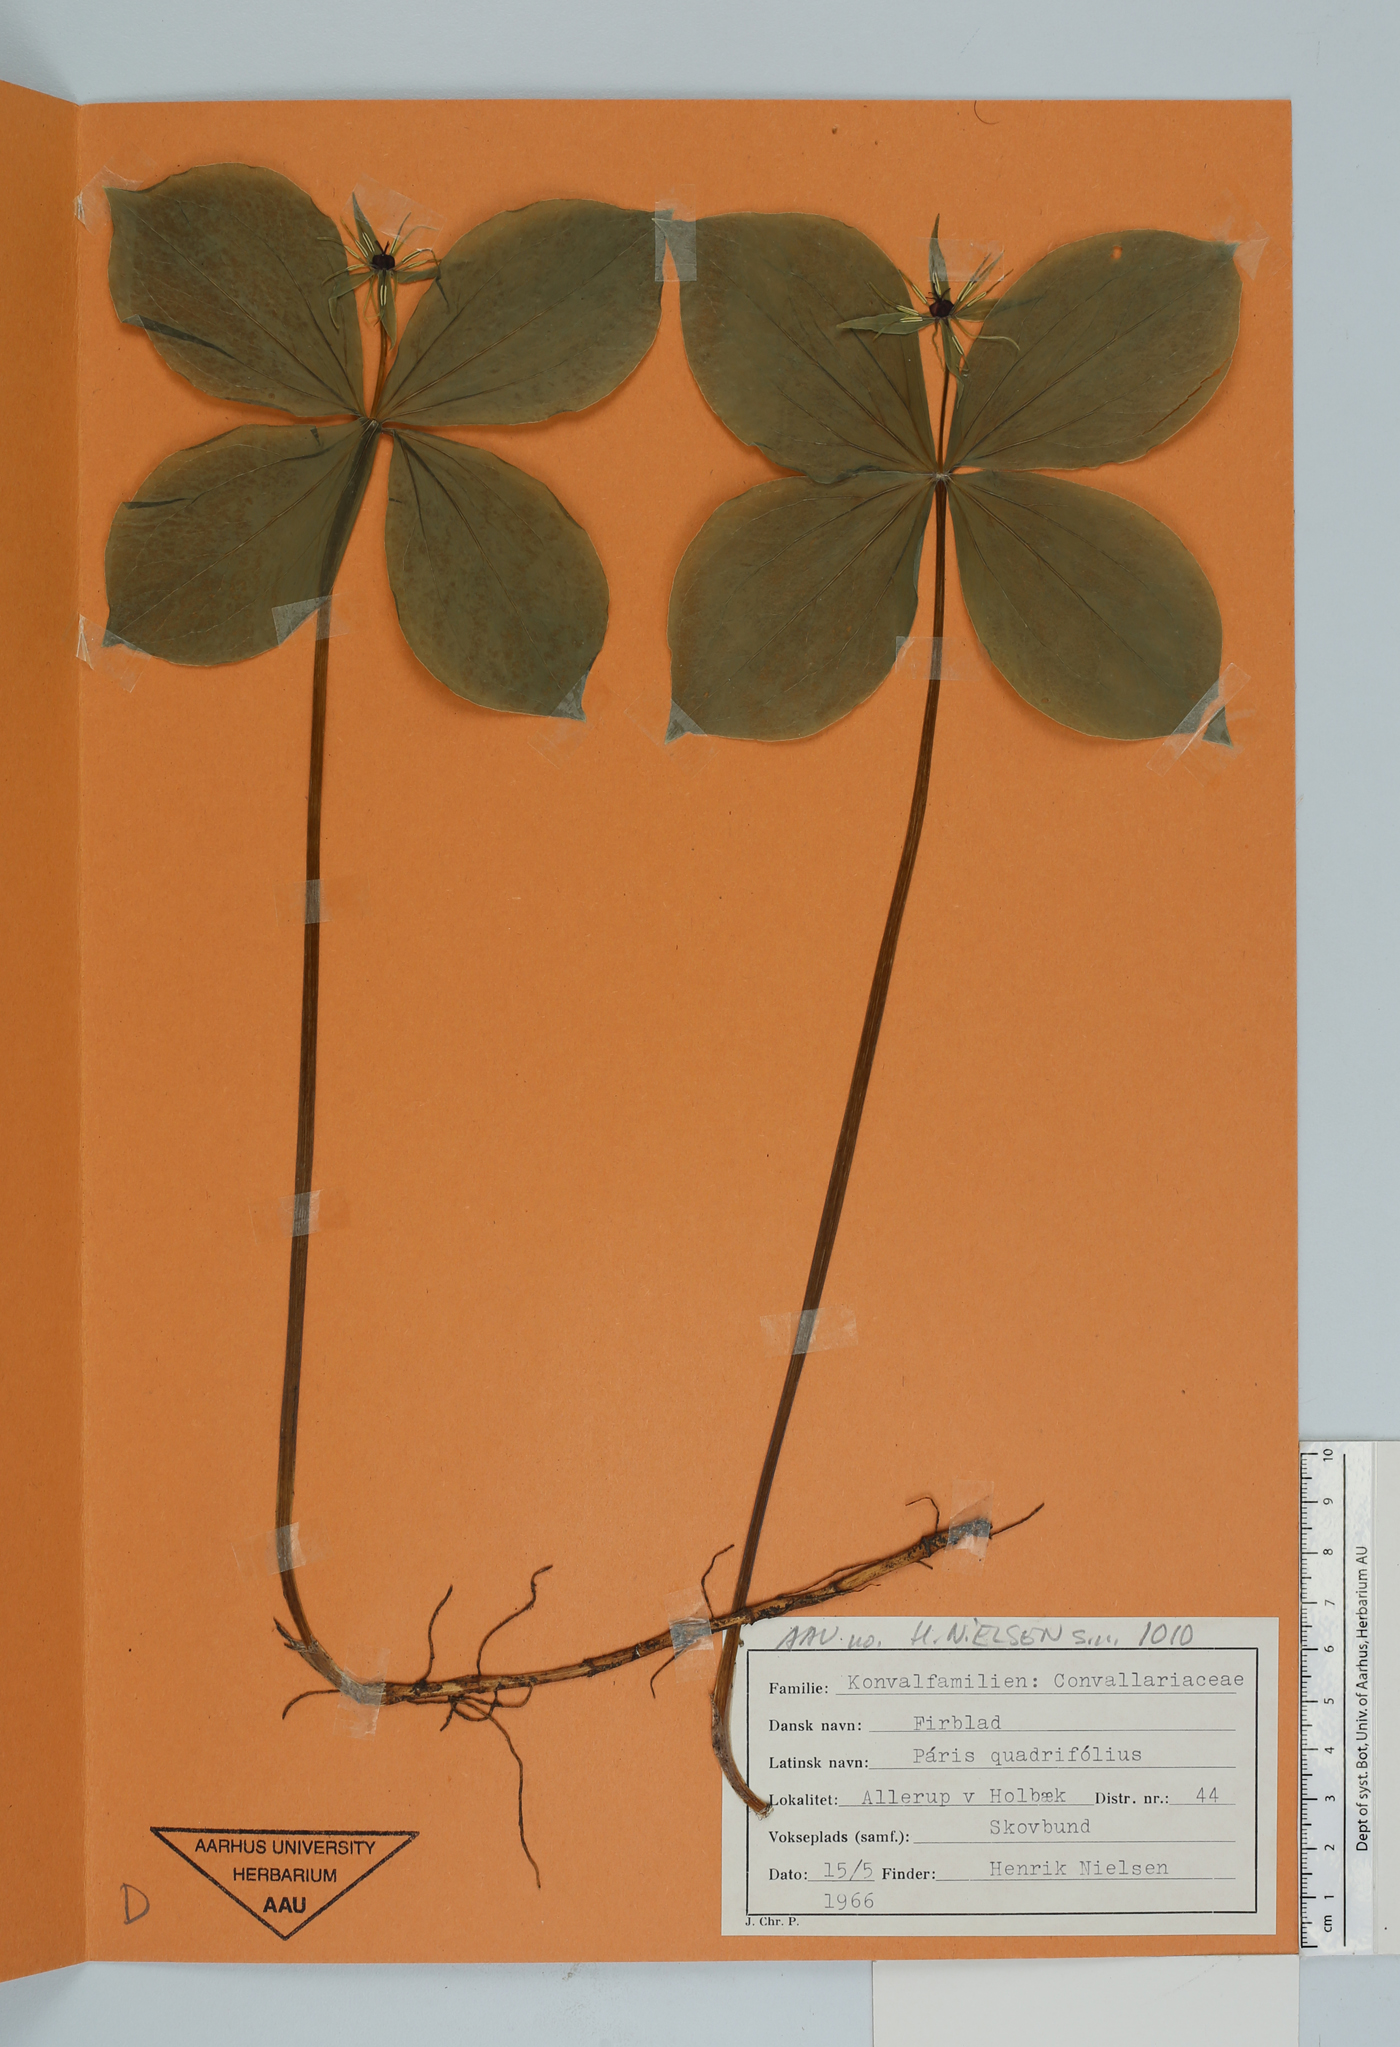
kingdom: Plantae
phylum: Tracheophyta
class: Liliopsida
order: Liliales
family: Melanthiaceae
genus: Paris
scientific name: Paris quadrifolia
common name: Herb-paris
